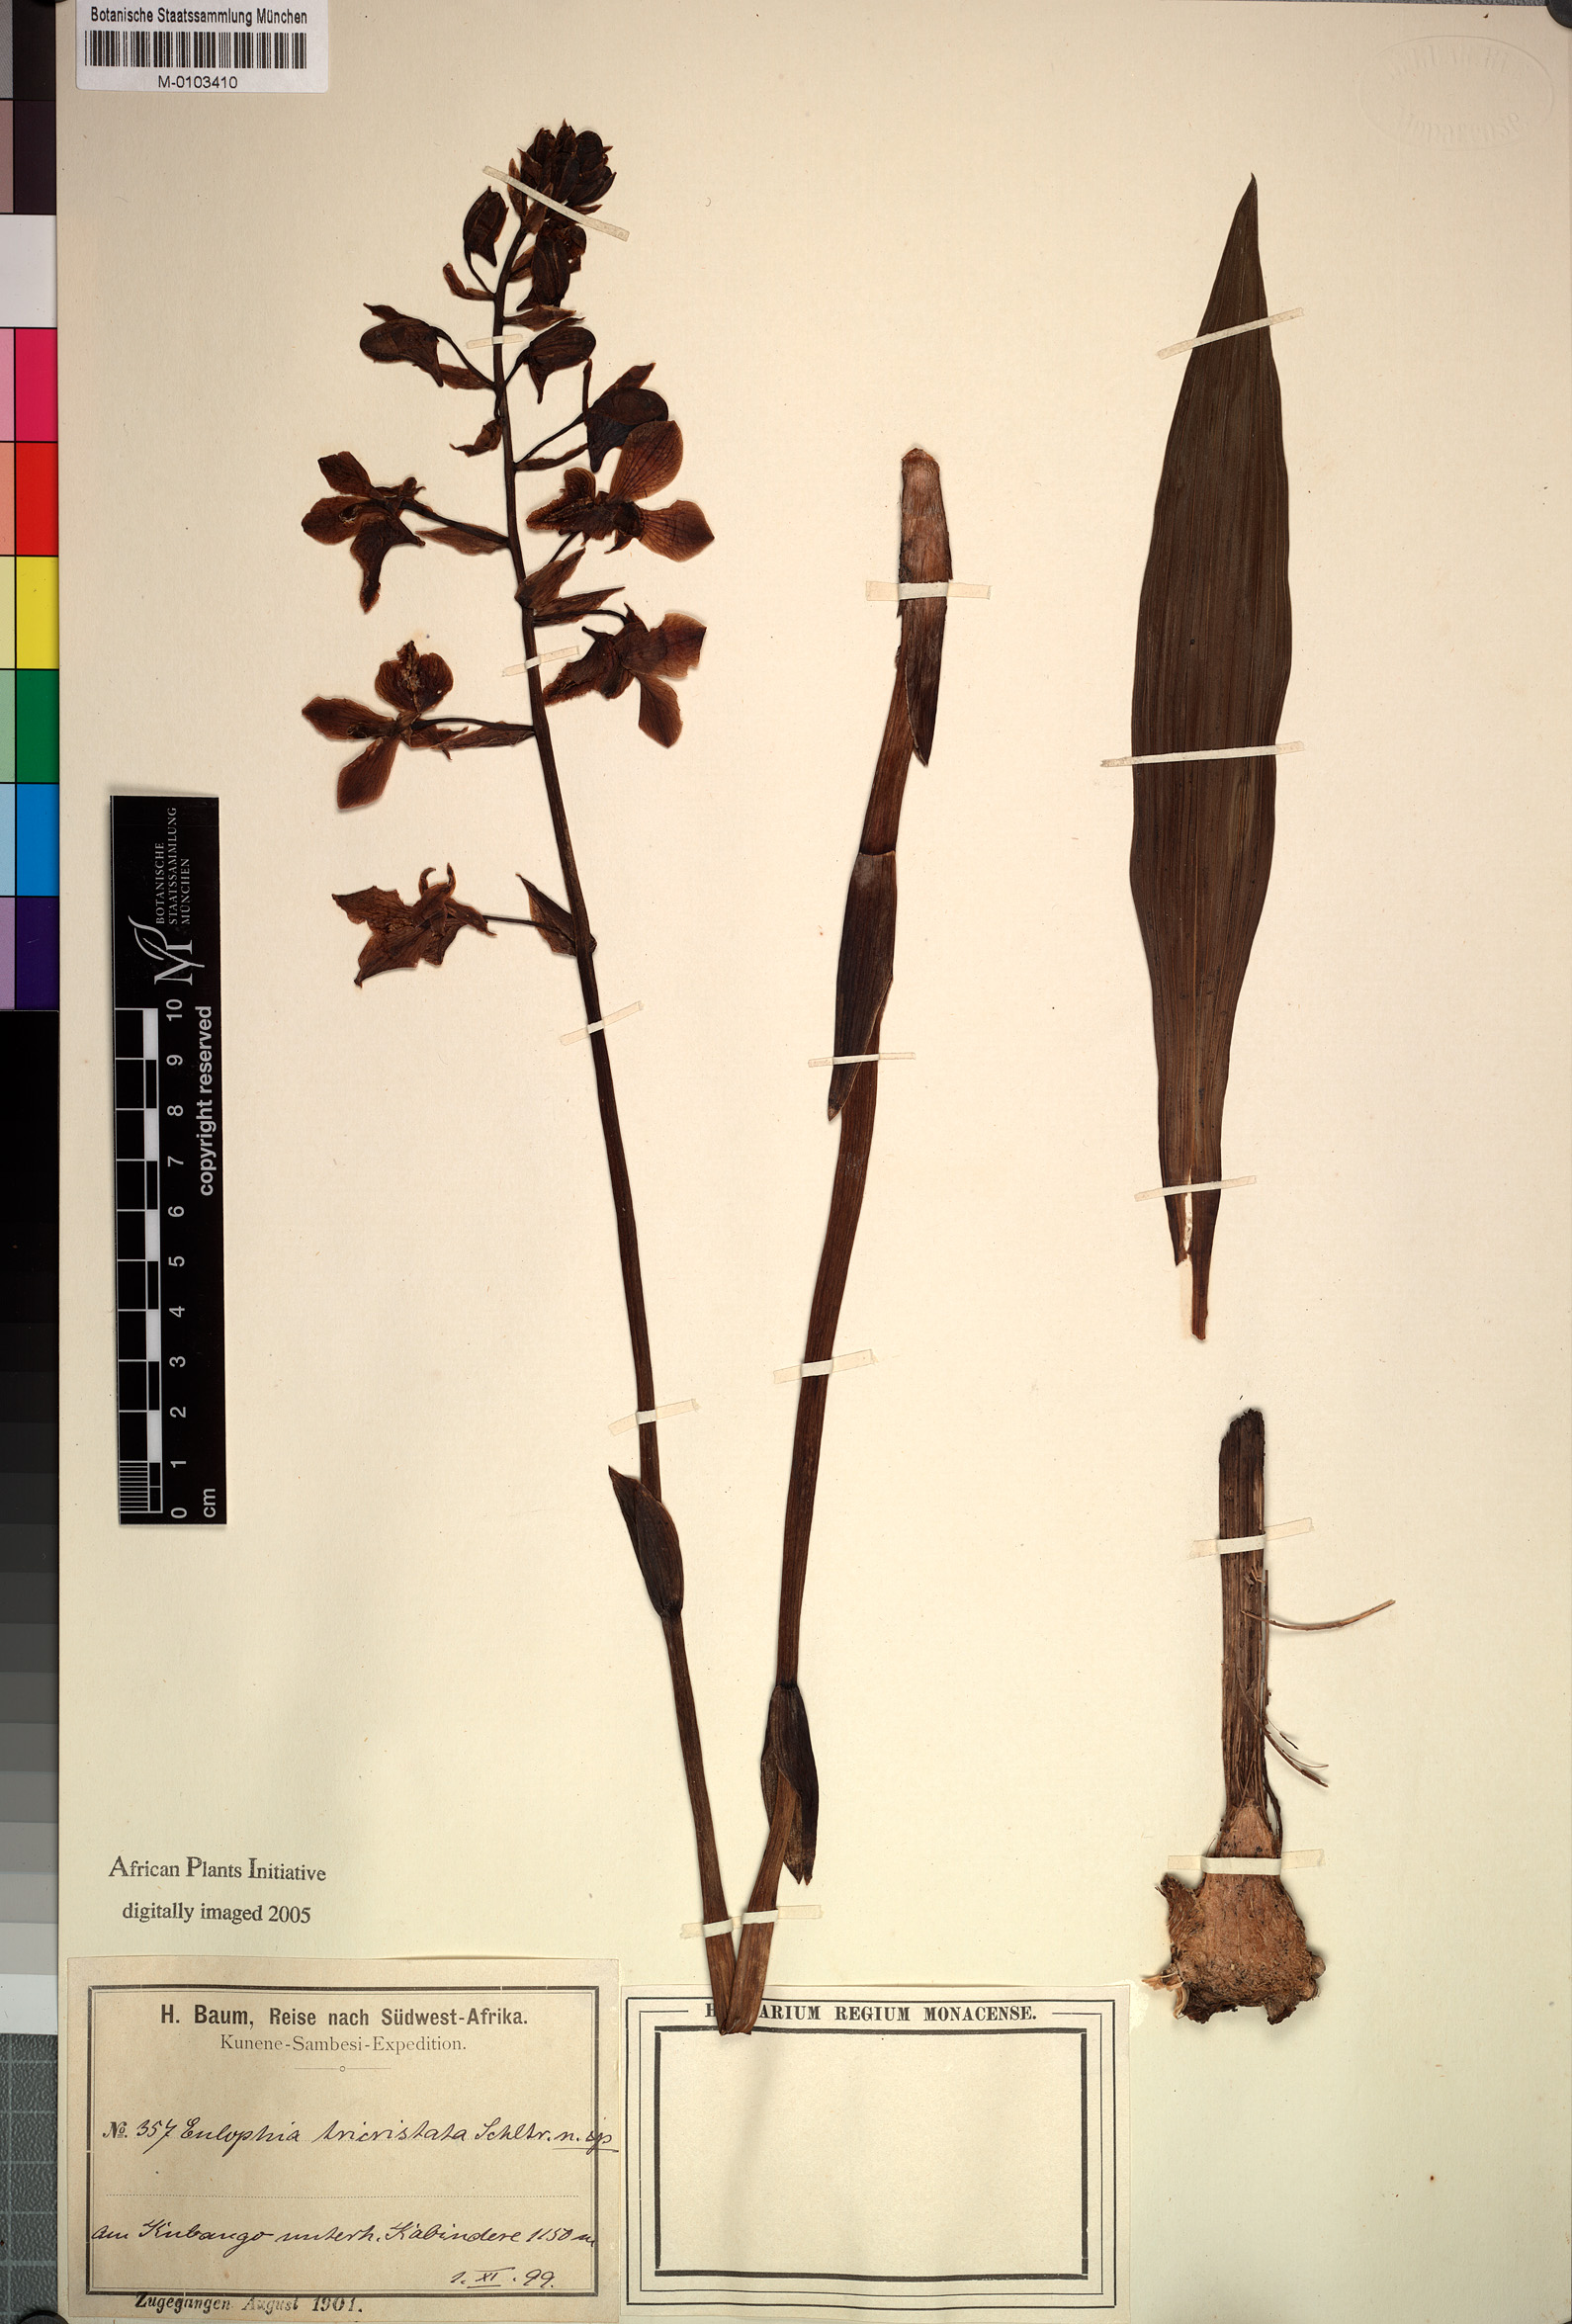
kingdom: Plantae
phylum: Tracheophyta
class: Liliopsida
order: Asparagales
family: Orchidaceae
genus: Eulophia
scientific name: Eulophia tricristata
